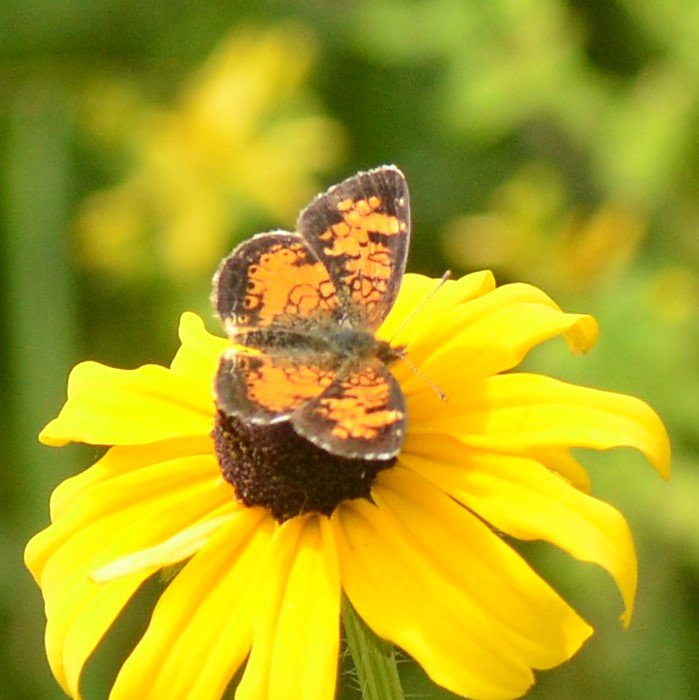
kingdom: Animalia
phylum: Arthropoda
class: Insecta
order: Lepidoptera
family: Nymphalidae
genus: Phyciodes
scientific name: Phyciodes tharos
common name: Northern Crescent
